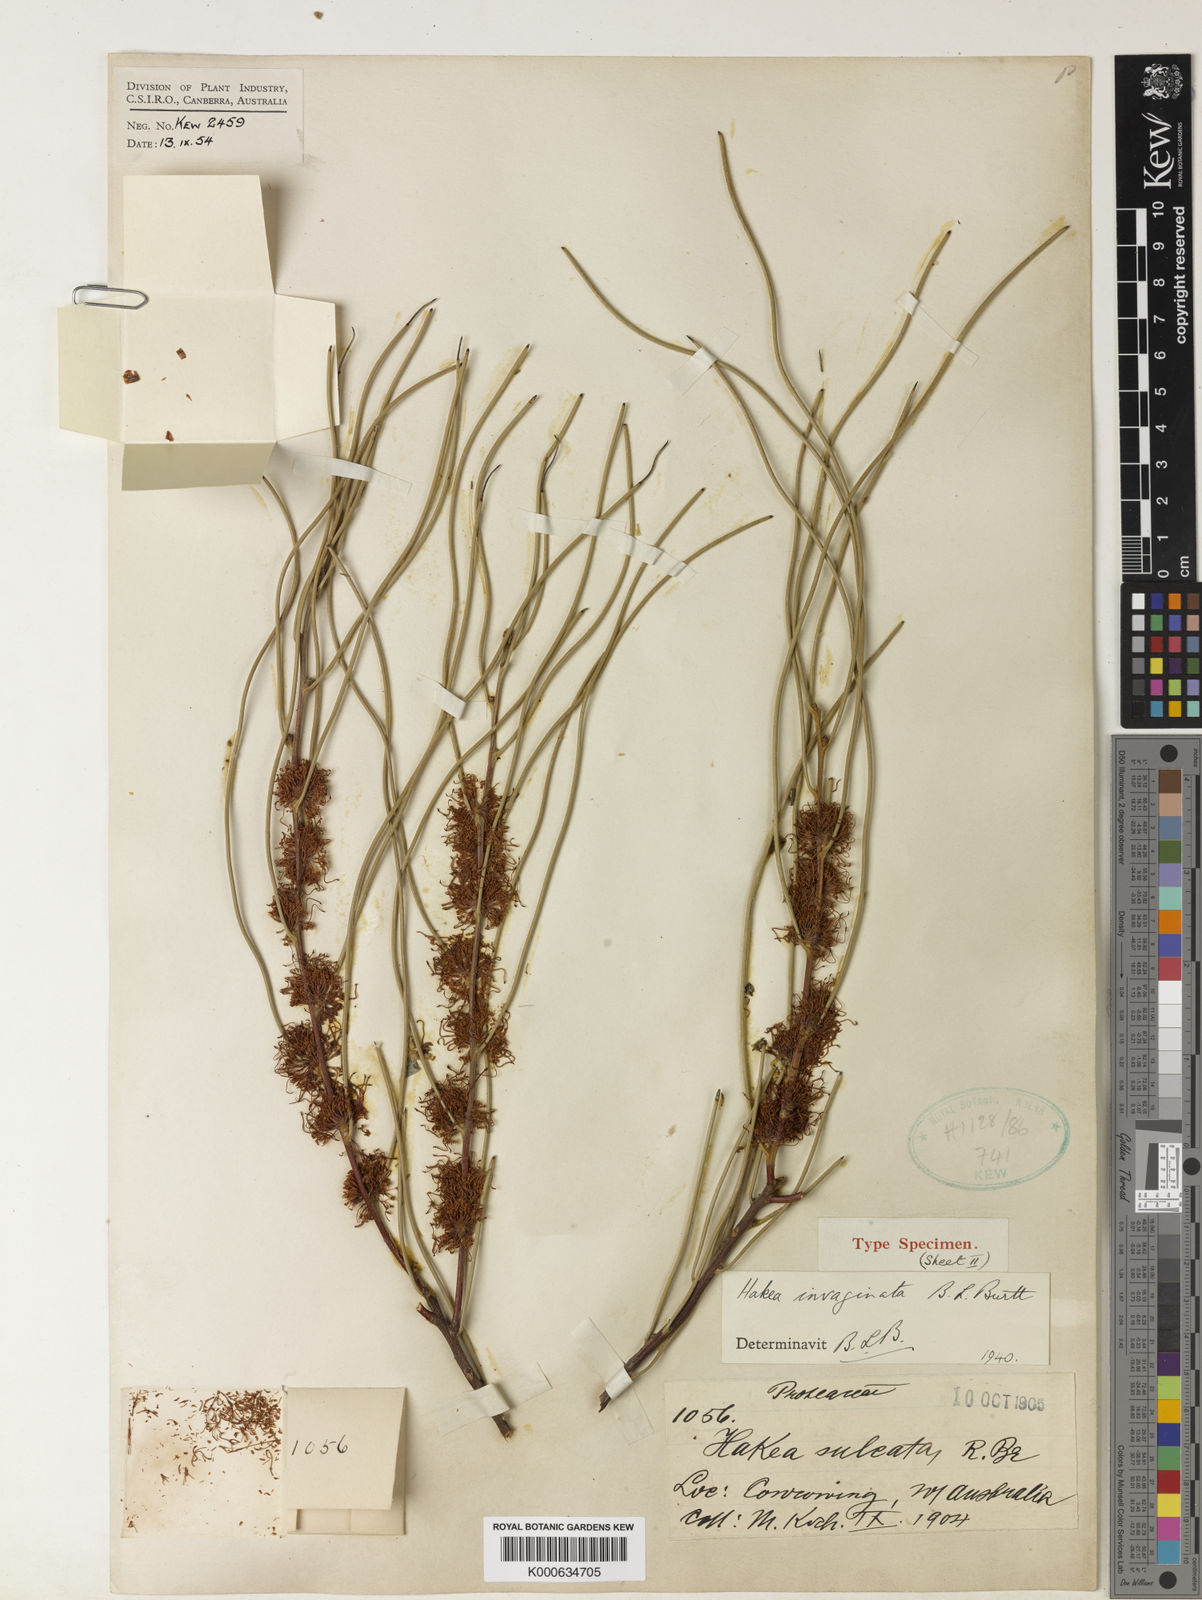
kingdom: Plantae
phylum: Tracheophyta
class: Magnoliopsida
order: Proteales
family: Proteaceae
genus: Hakea
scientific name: Hakea invaginata
